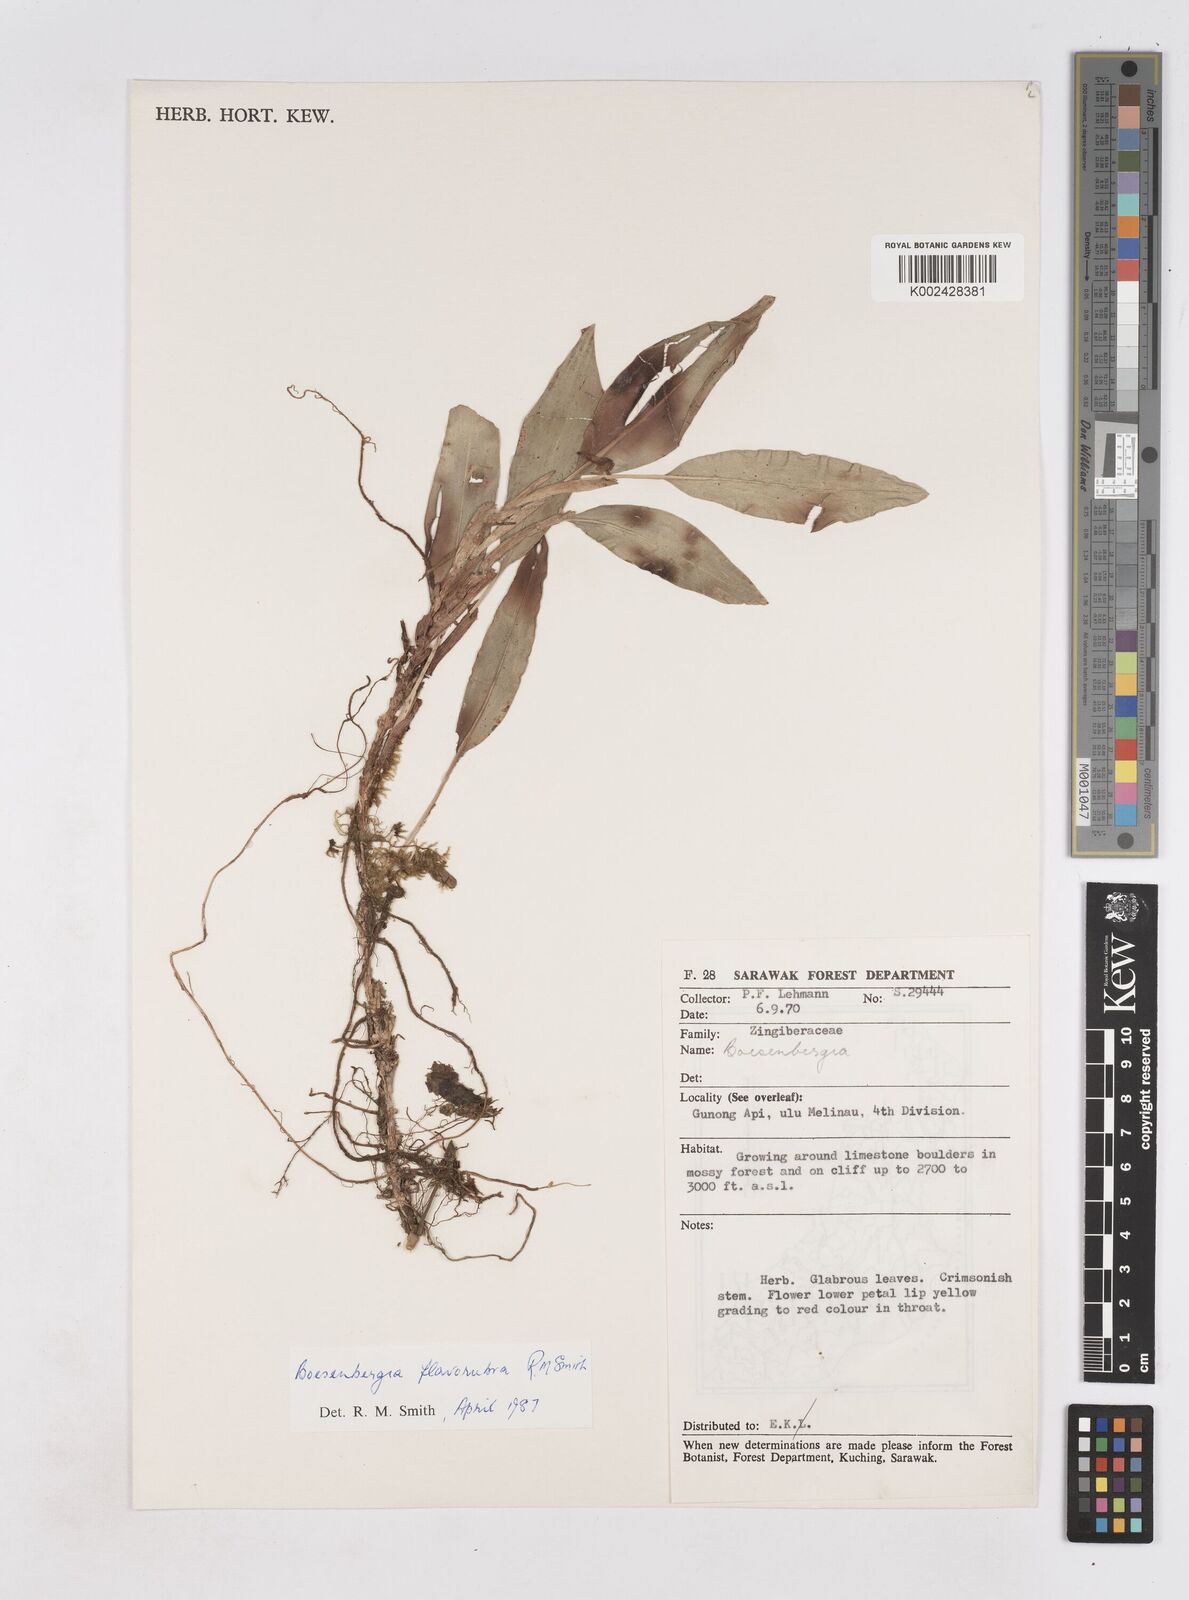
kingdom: Plantae
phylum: Tracheophyta
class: Liliopsida
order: Zingiberales
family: Zingiberaceae
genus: Boesenbergia
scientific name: Boesenbergia flavorubra
